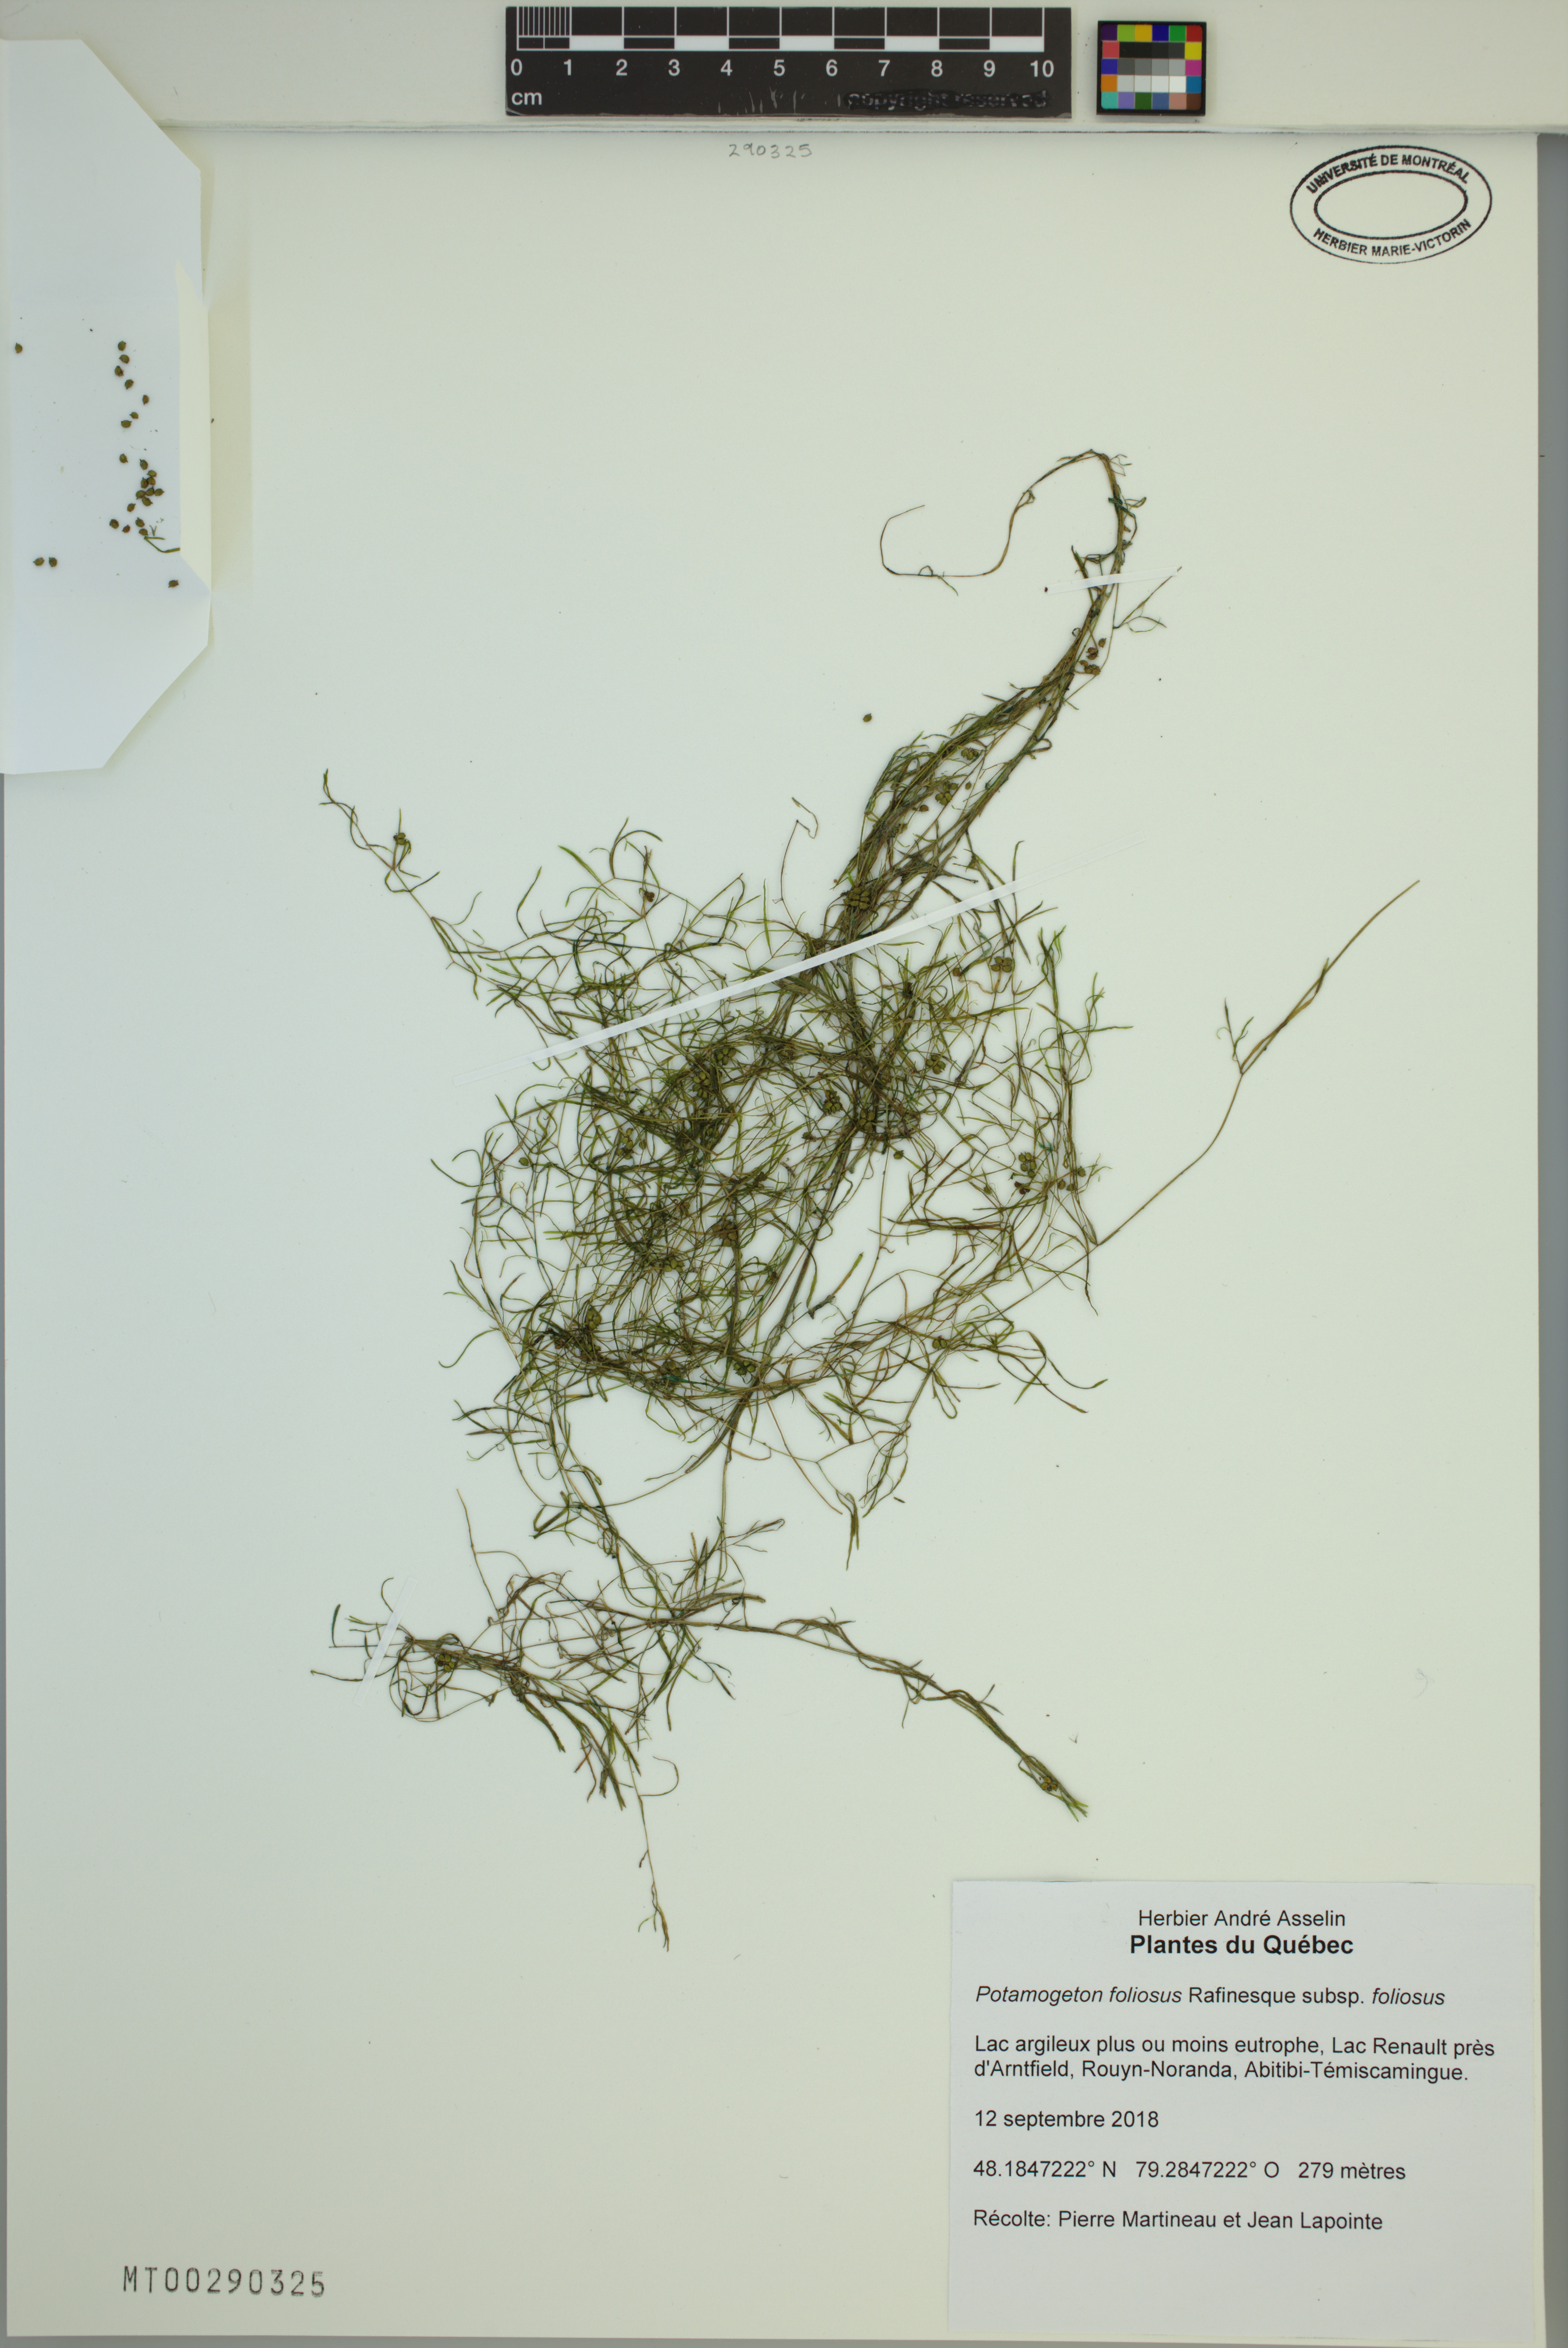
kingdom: Plantae
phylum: Tracheophyta
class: Liliopsida
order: Alismatales
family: Potamogetonaceae
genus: Potamogeton
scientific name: Potamogeton foliosus
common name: Leafy pondweed
